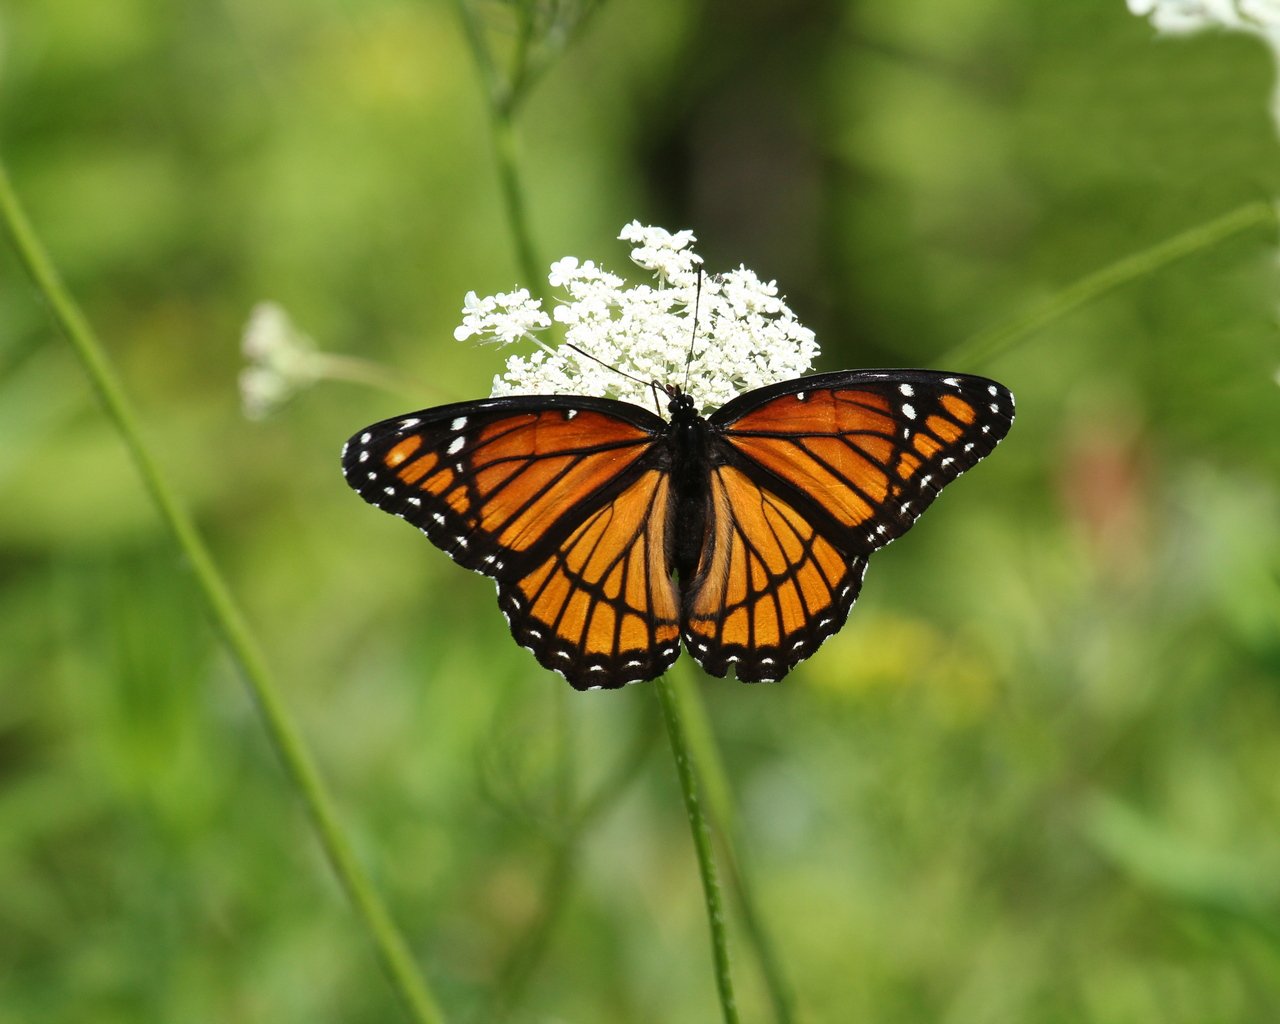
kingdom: Animalia
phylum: Arthropoda
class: Insecta
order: Lepidoptera
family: Nymphalidae
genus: Limenitis
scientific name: Limenitis archippus
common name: Viceroy
